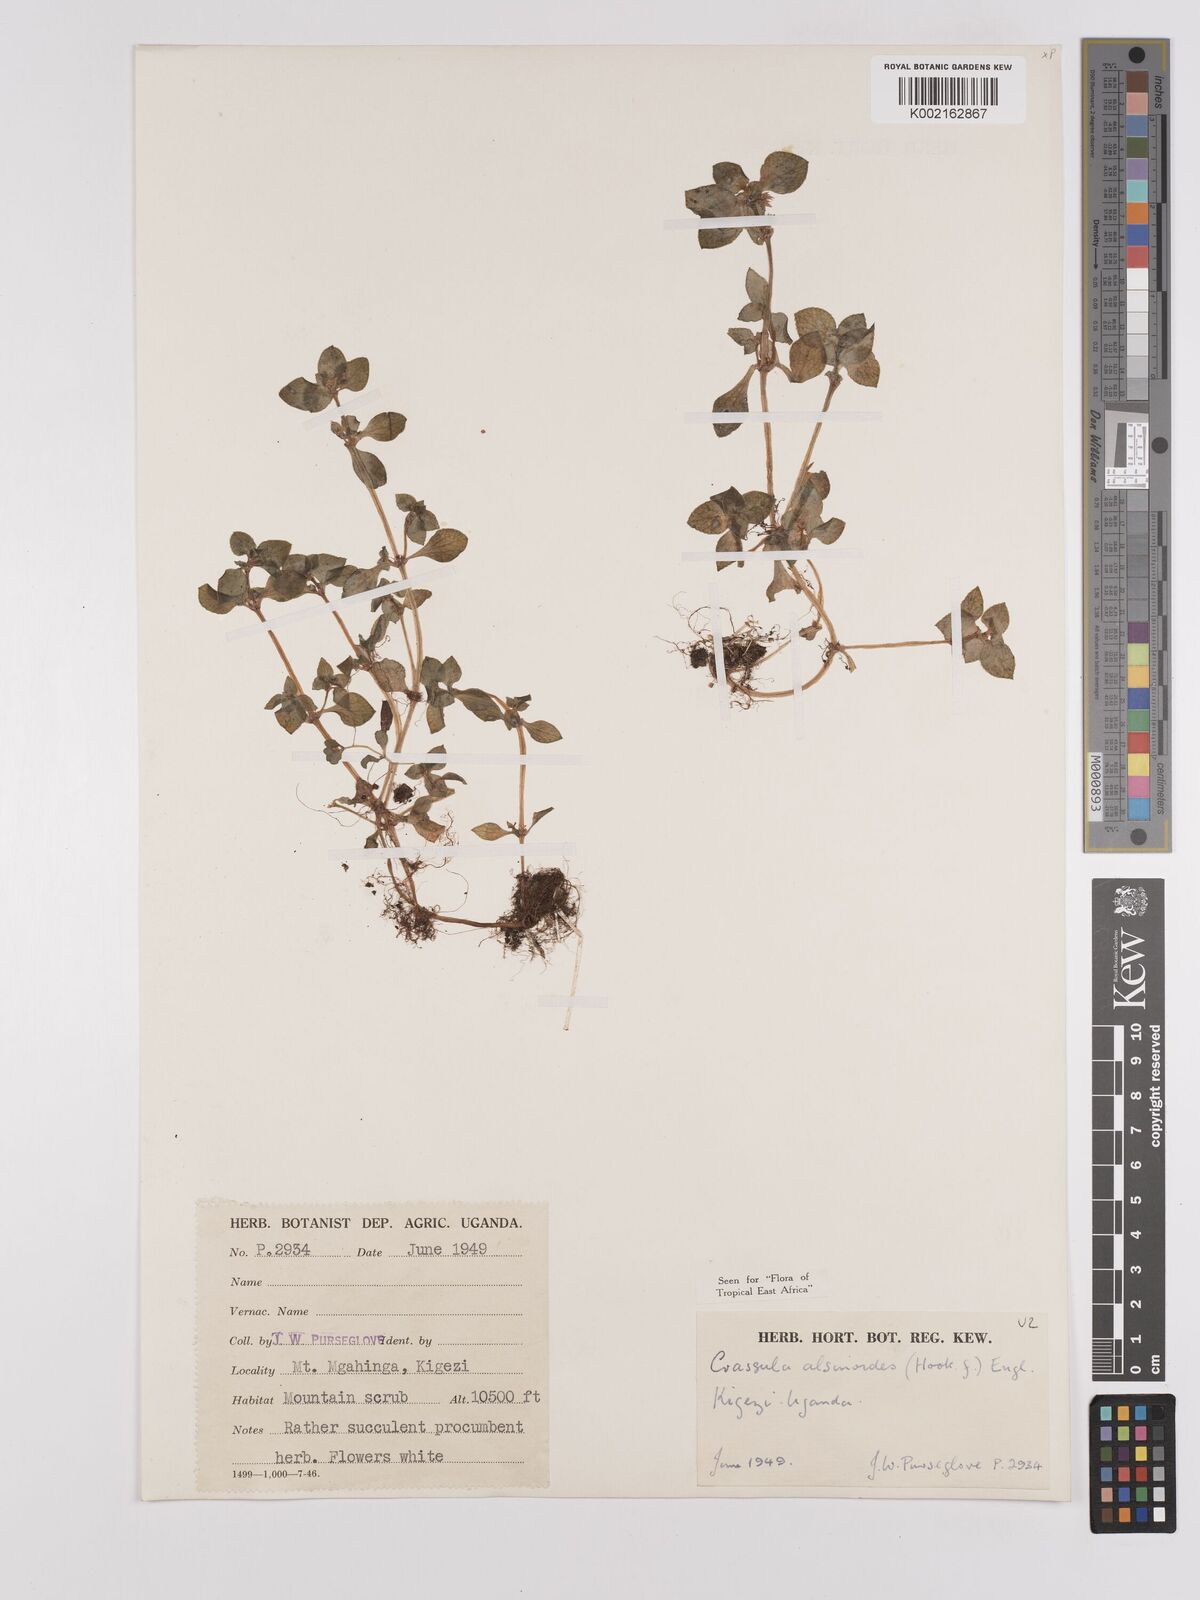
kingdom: Plantae
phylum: Tracheophyta
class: Magnoliopsida
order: Saxifragales
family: Crassulaceae
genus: Crassula
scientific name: Crassula alsinoides
